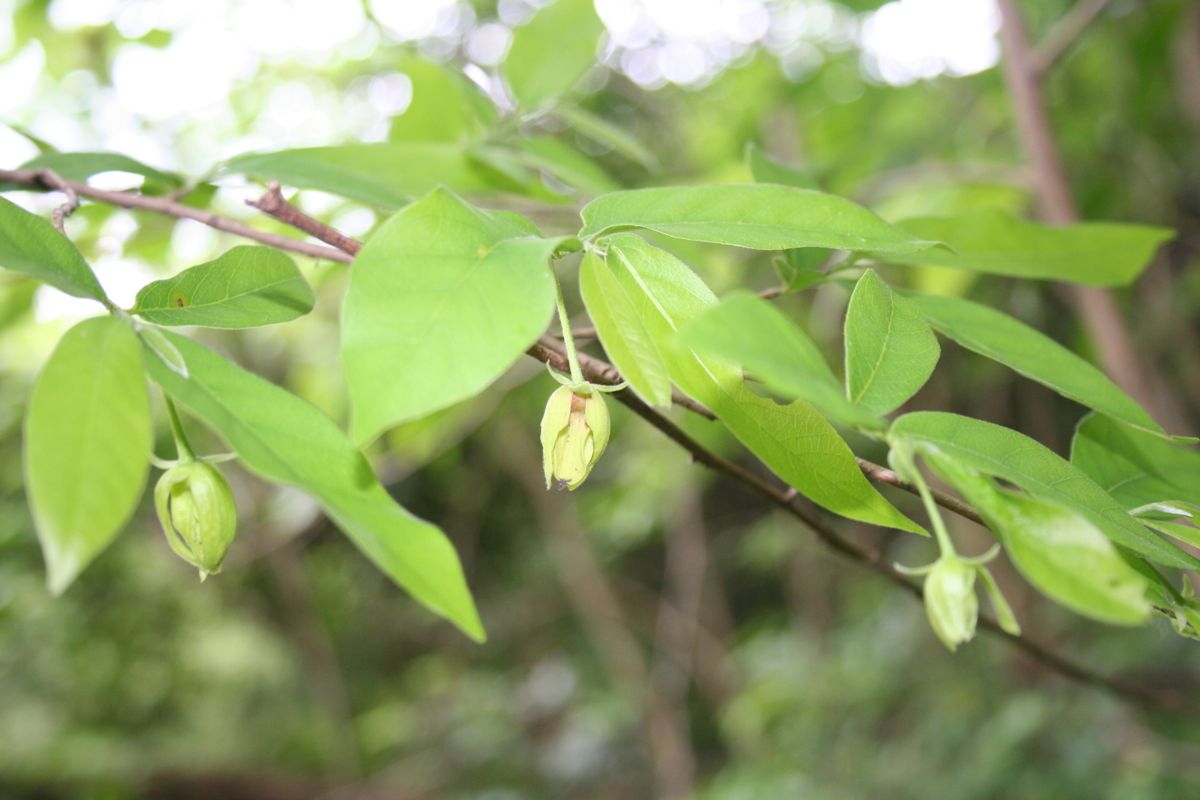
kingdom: Plantae
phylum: Tracheophyta
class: Magnoliopsida
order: Magnoliales
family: Annonaceae
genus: Desmopsis
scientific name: Desmopsis schippii
